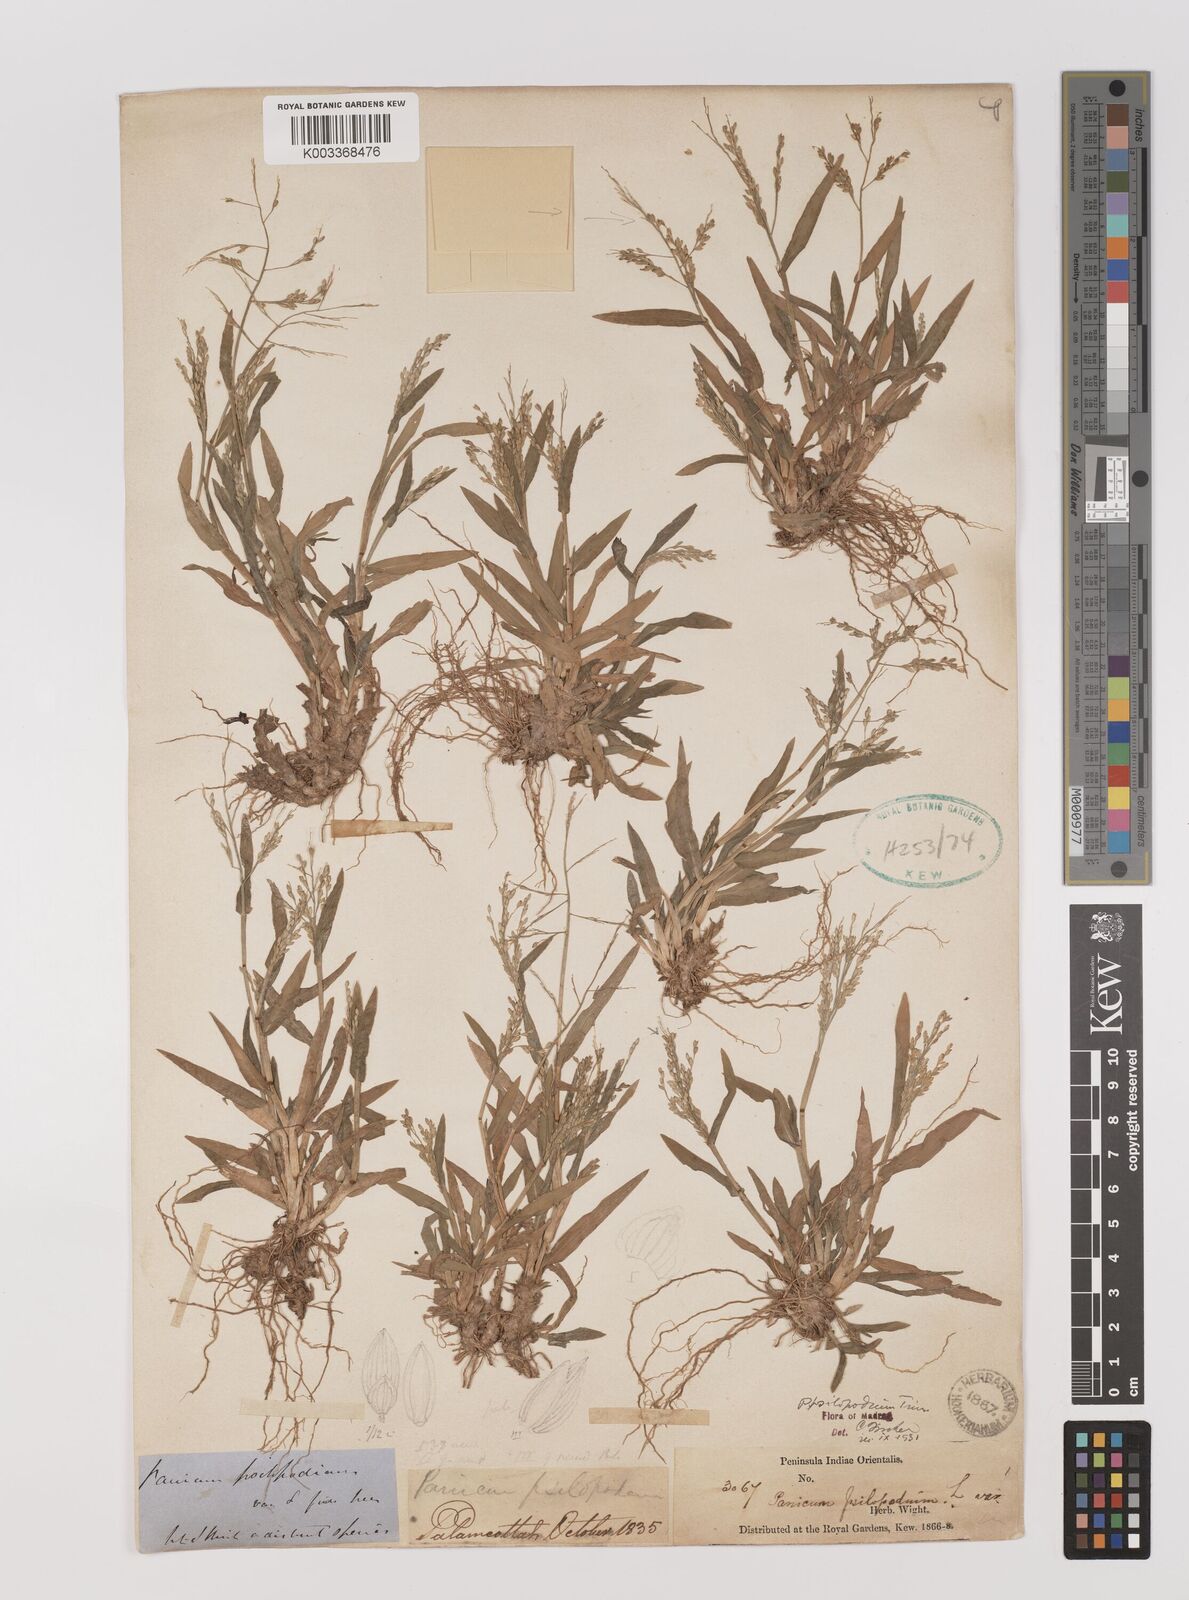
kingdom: Plantae
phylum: Tracheophyta
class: Liliopsida
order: Poales
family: Poaceae
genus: Panicum
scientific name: Panicum sumatrense
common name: Little millet
